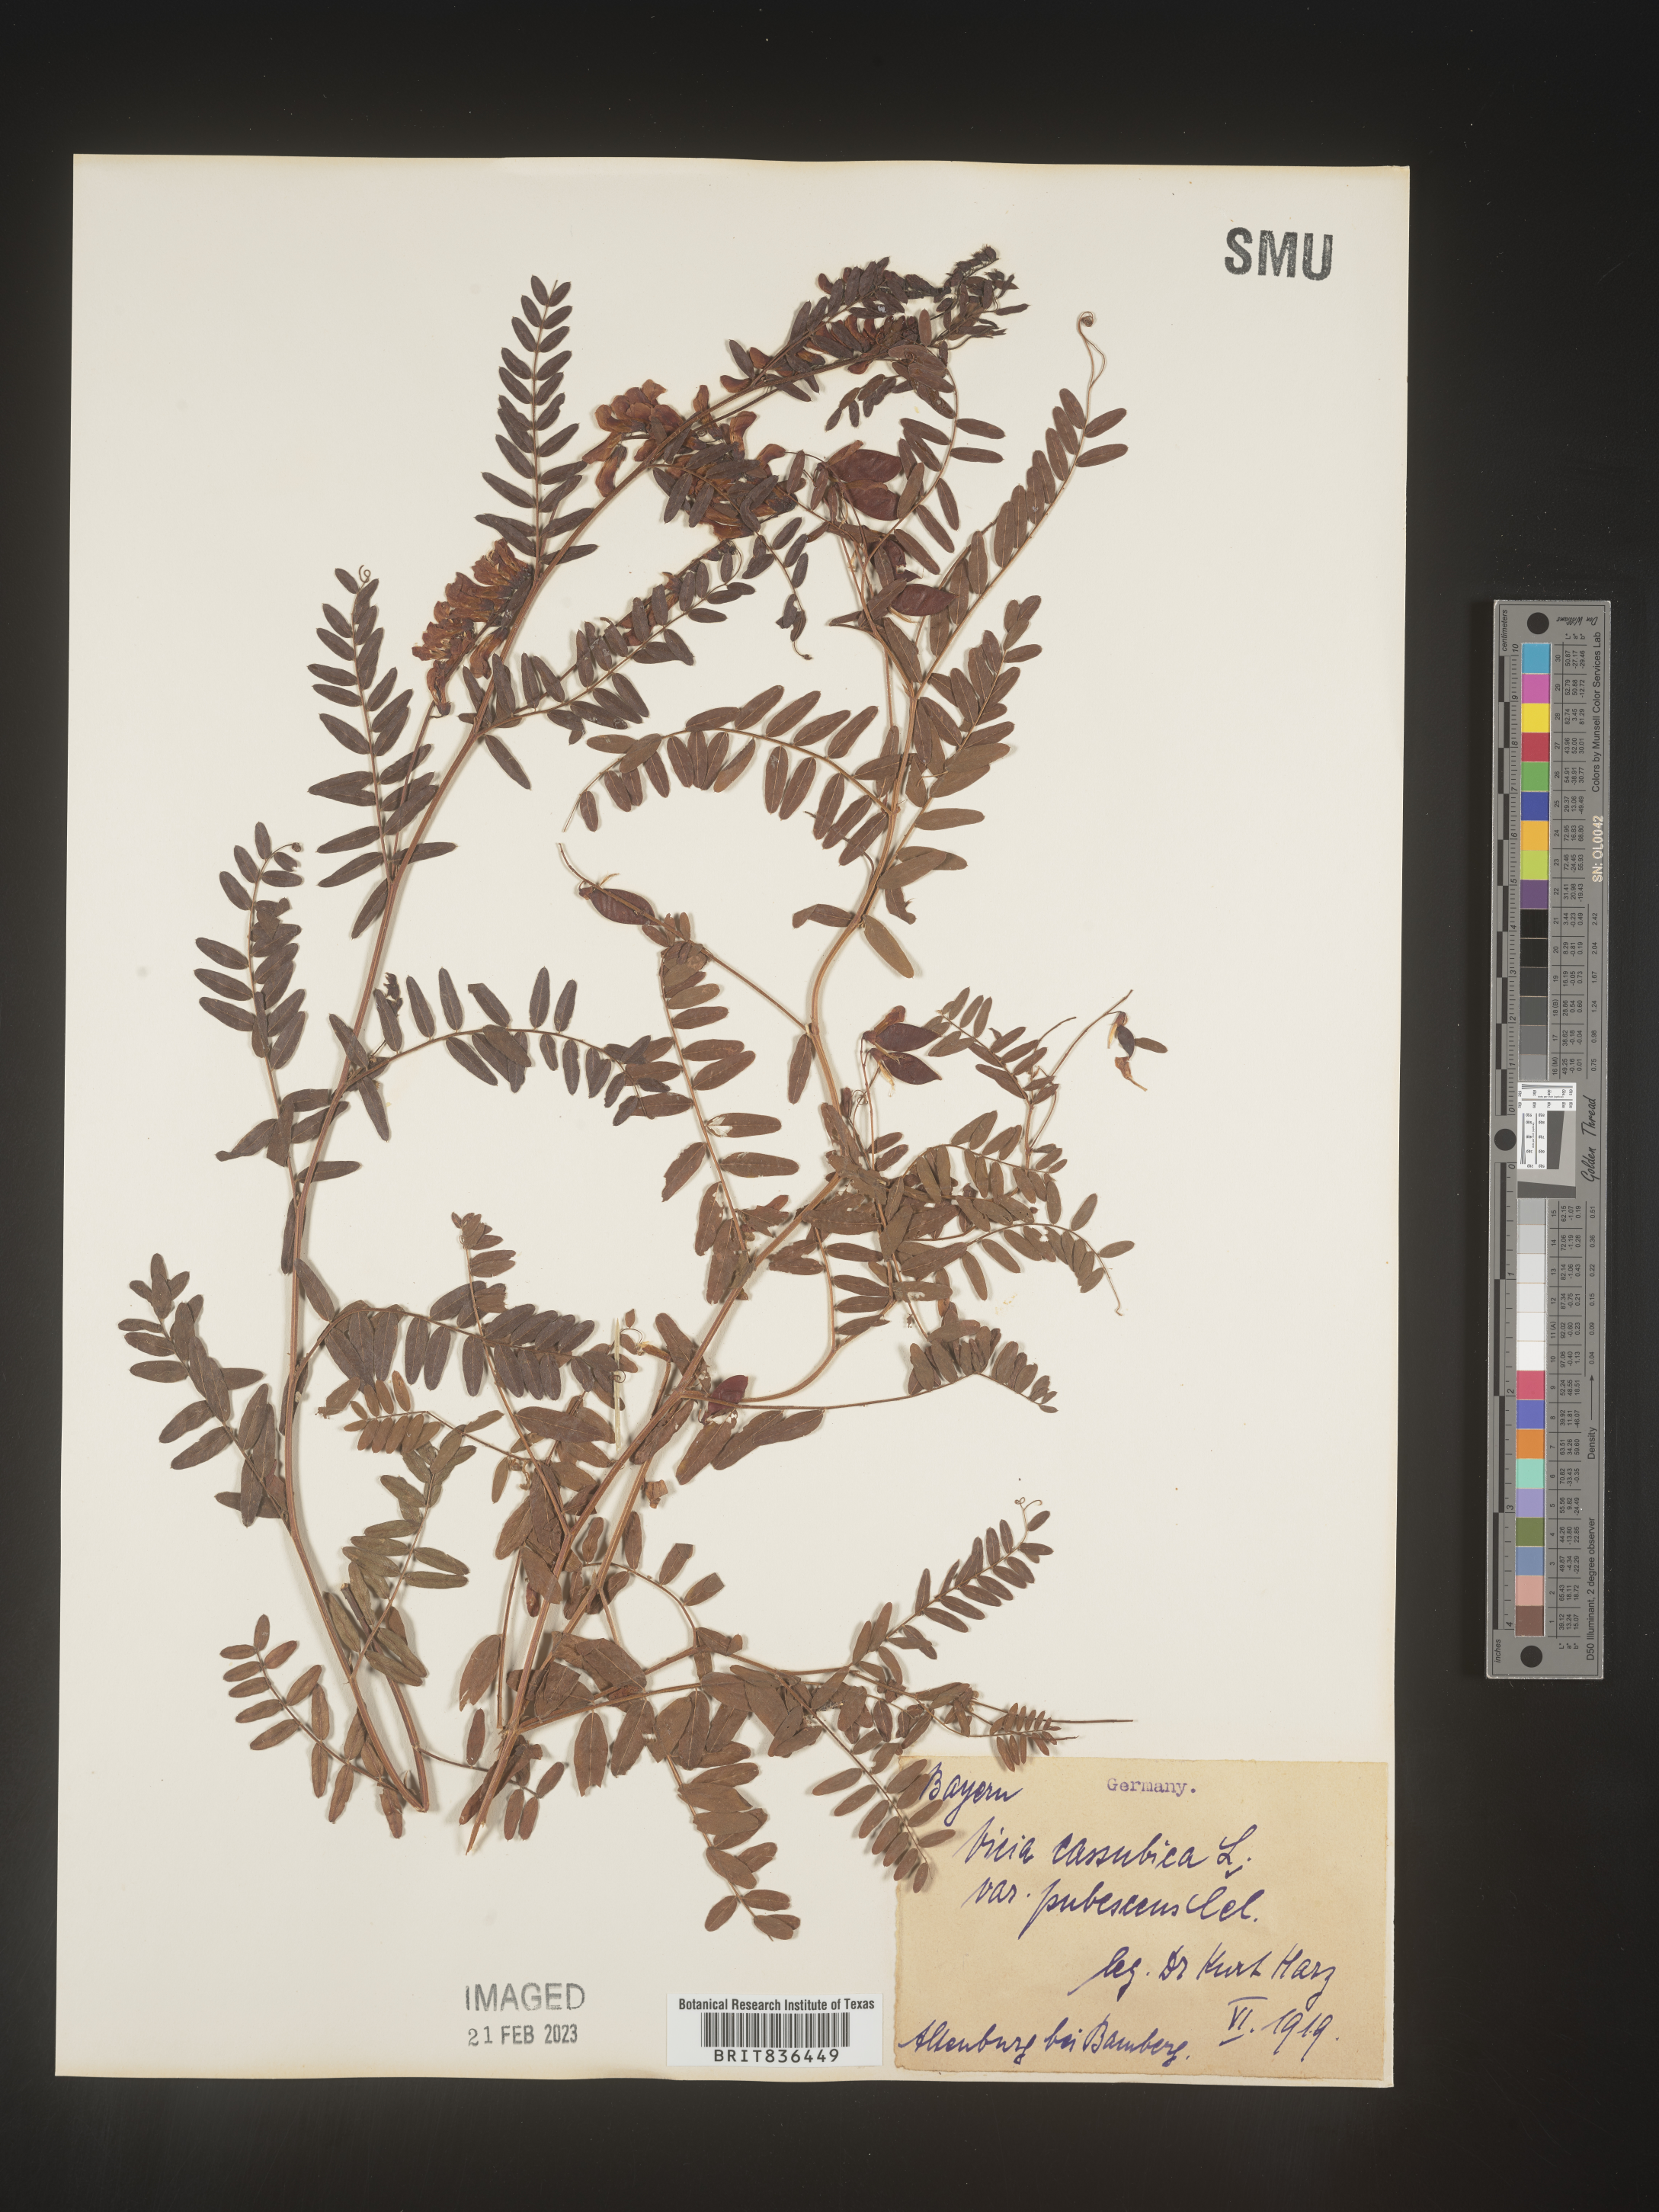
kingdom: Plantae
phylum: Tracheophyta
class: Magnoliopsida
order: Fabales
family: Fabaceae
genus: Vicia
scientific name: Vicia
